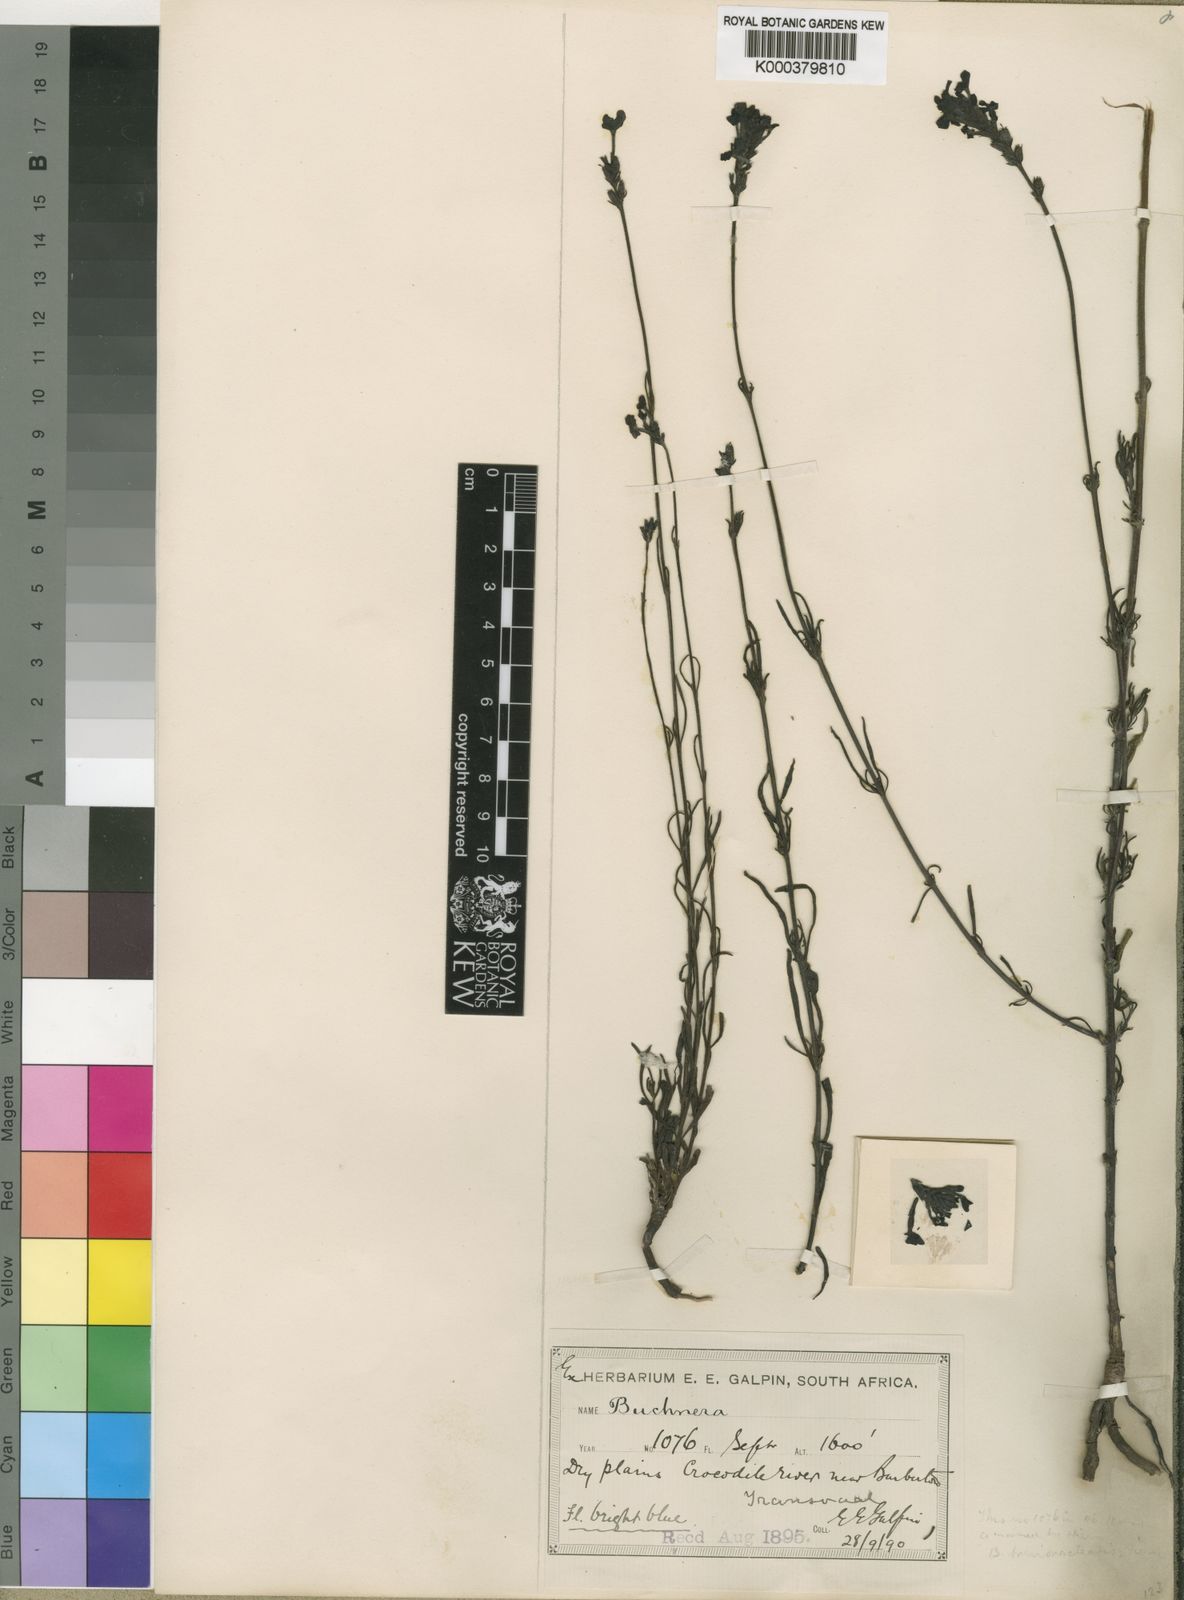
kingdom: Plantae
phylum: Tracheophyta
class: Magnoliopsida
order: Lamiales
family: Orobanchaceae
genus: Buchnera
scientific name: Buchnera longespicata
